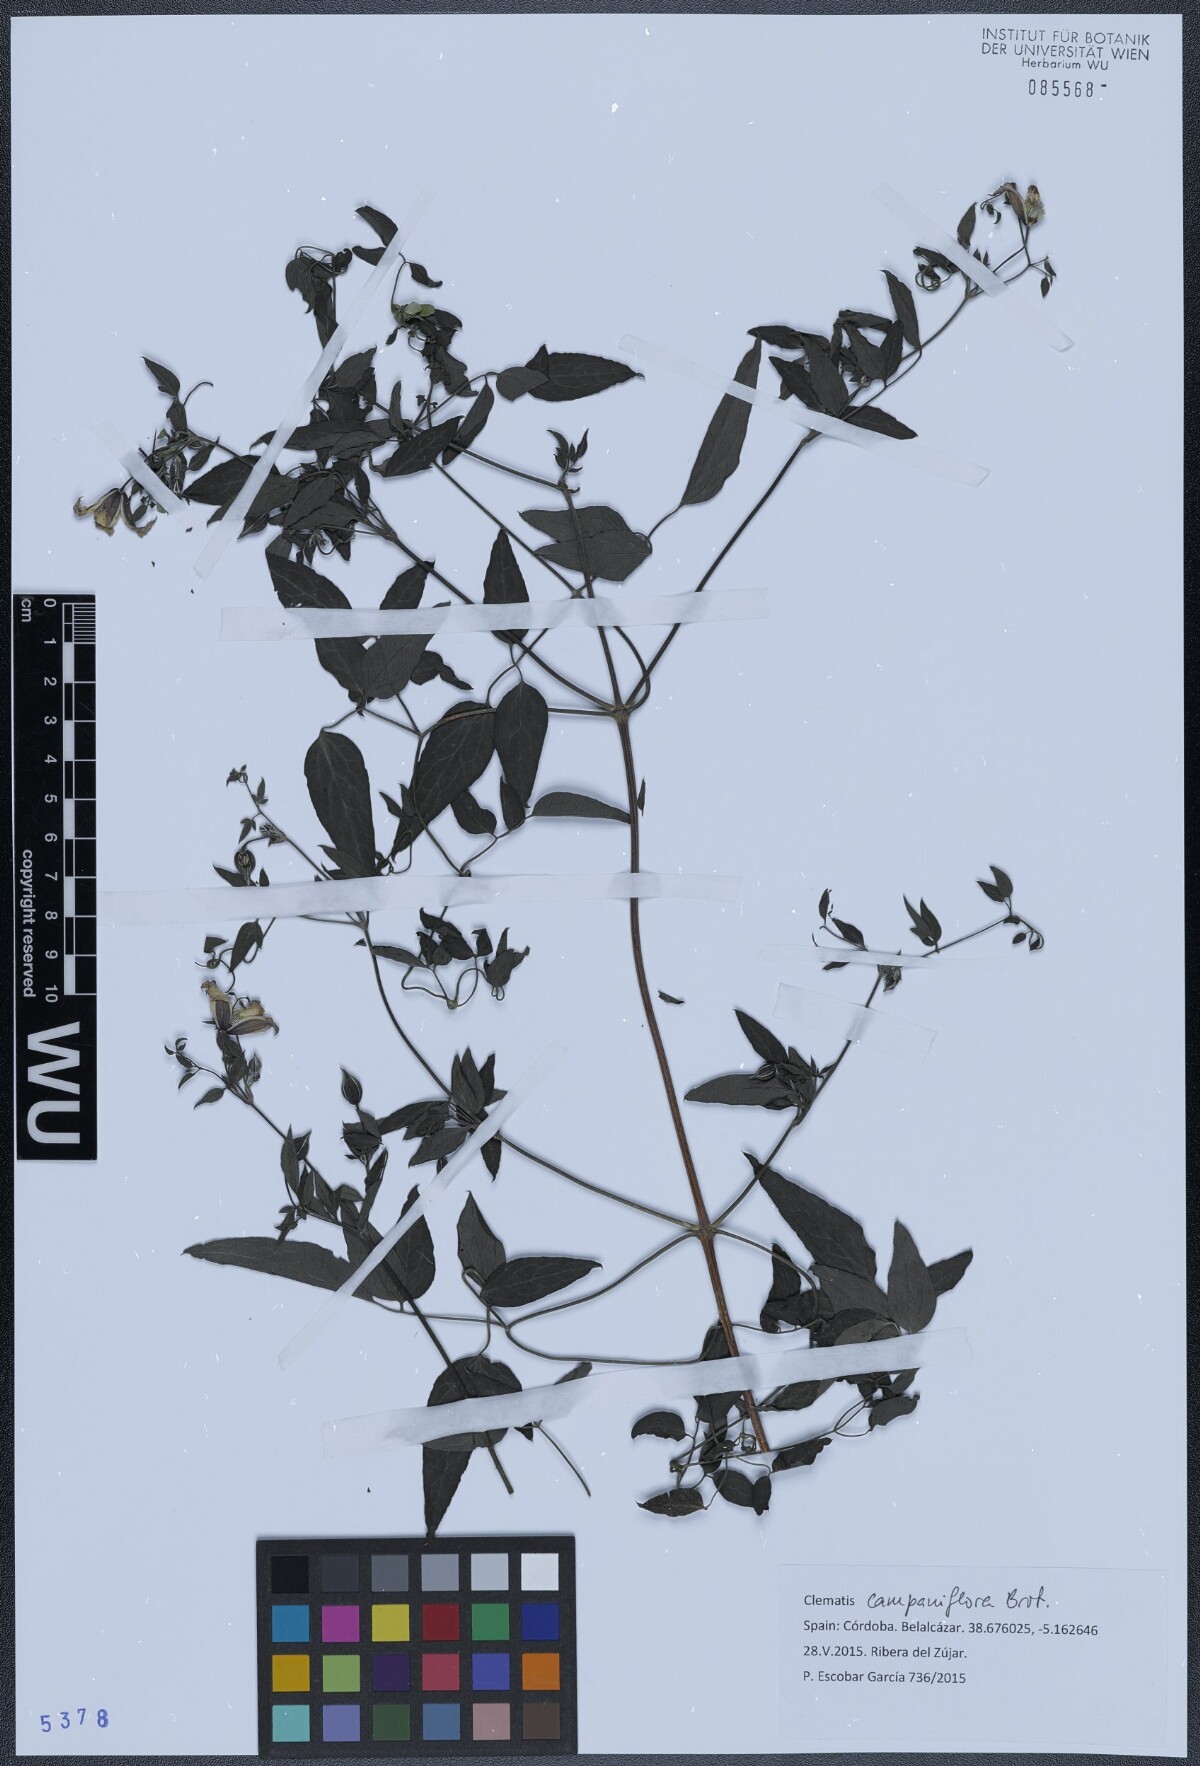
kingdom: Plantae
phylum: Tracheophyta
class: Magnoliopsida
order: Ranunculales
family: Ranunculaceae
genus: Clematis
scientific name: Clematis viticella
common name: Purple clematis
